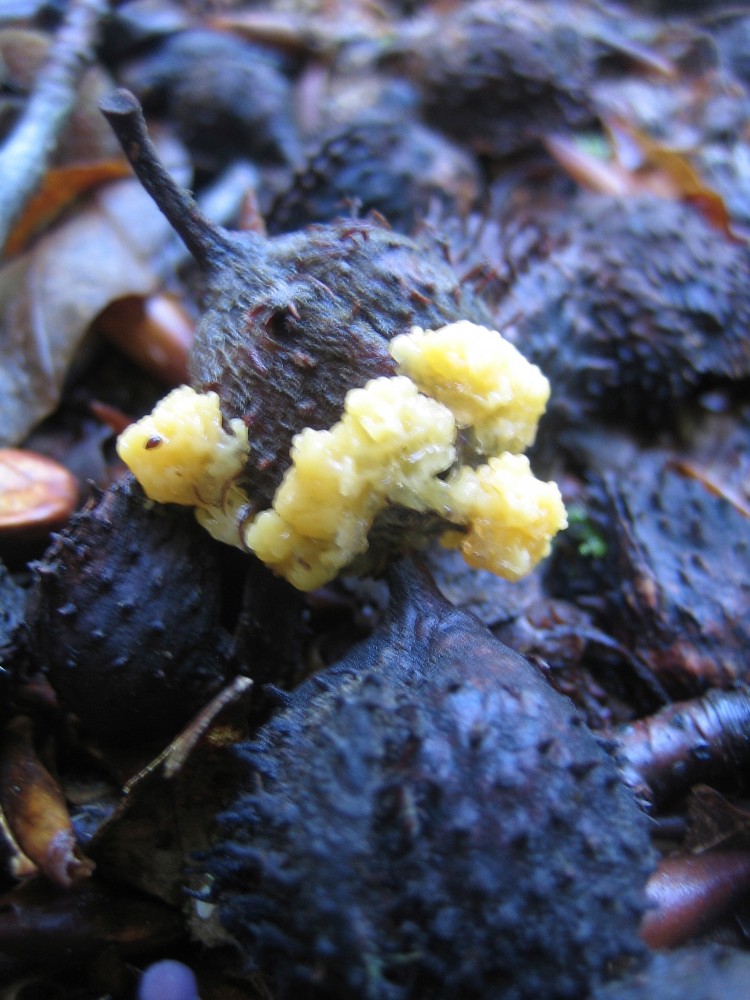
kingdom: Fungi
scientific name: Fungi
